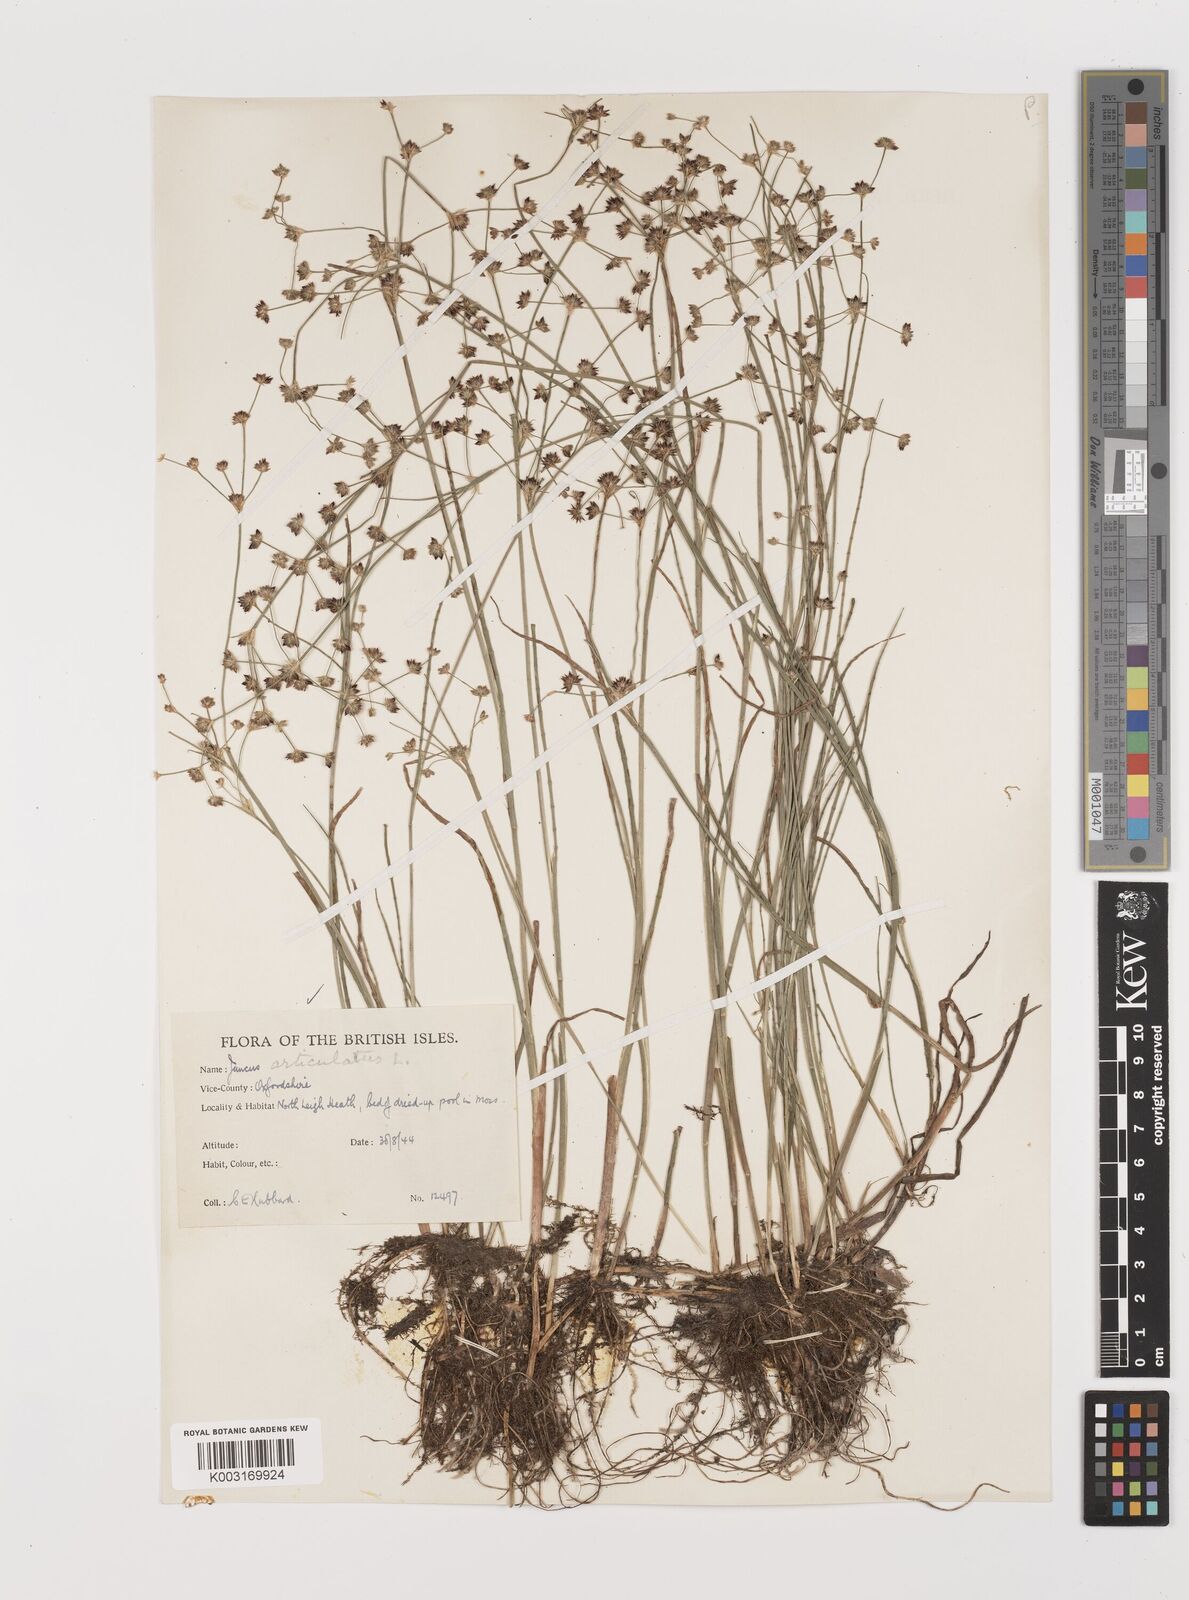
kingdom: Plantae
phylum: Tracheophyta
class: Liliopsida
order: Poales
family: Juncaceae
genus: Juncus
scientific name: Juncus articulatus
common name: Jointed rush
